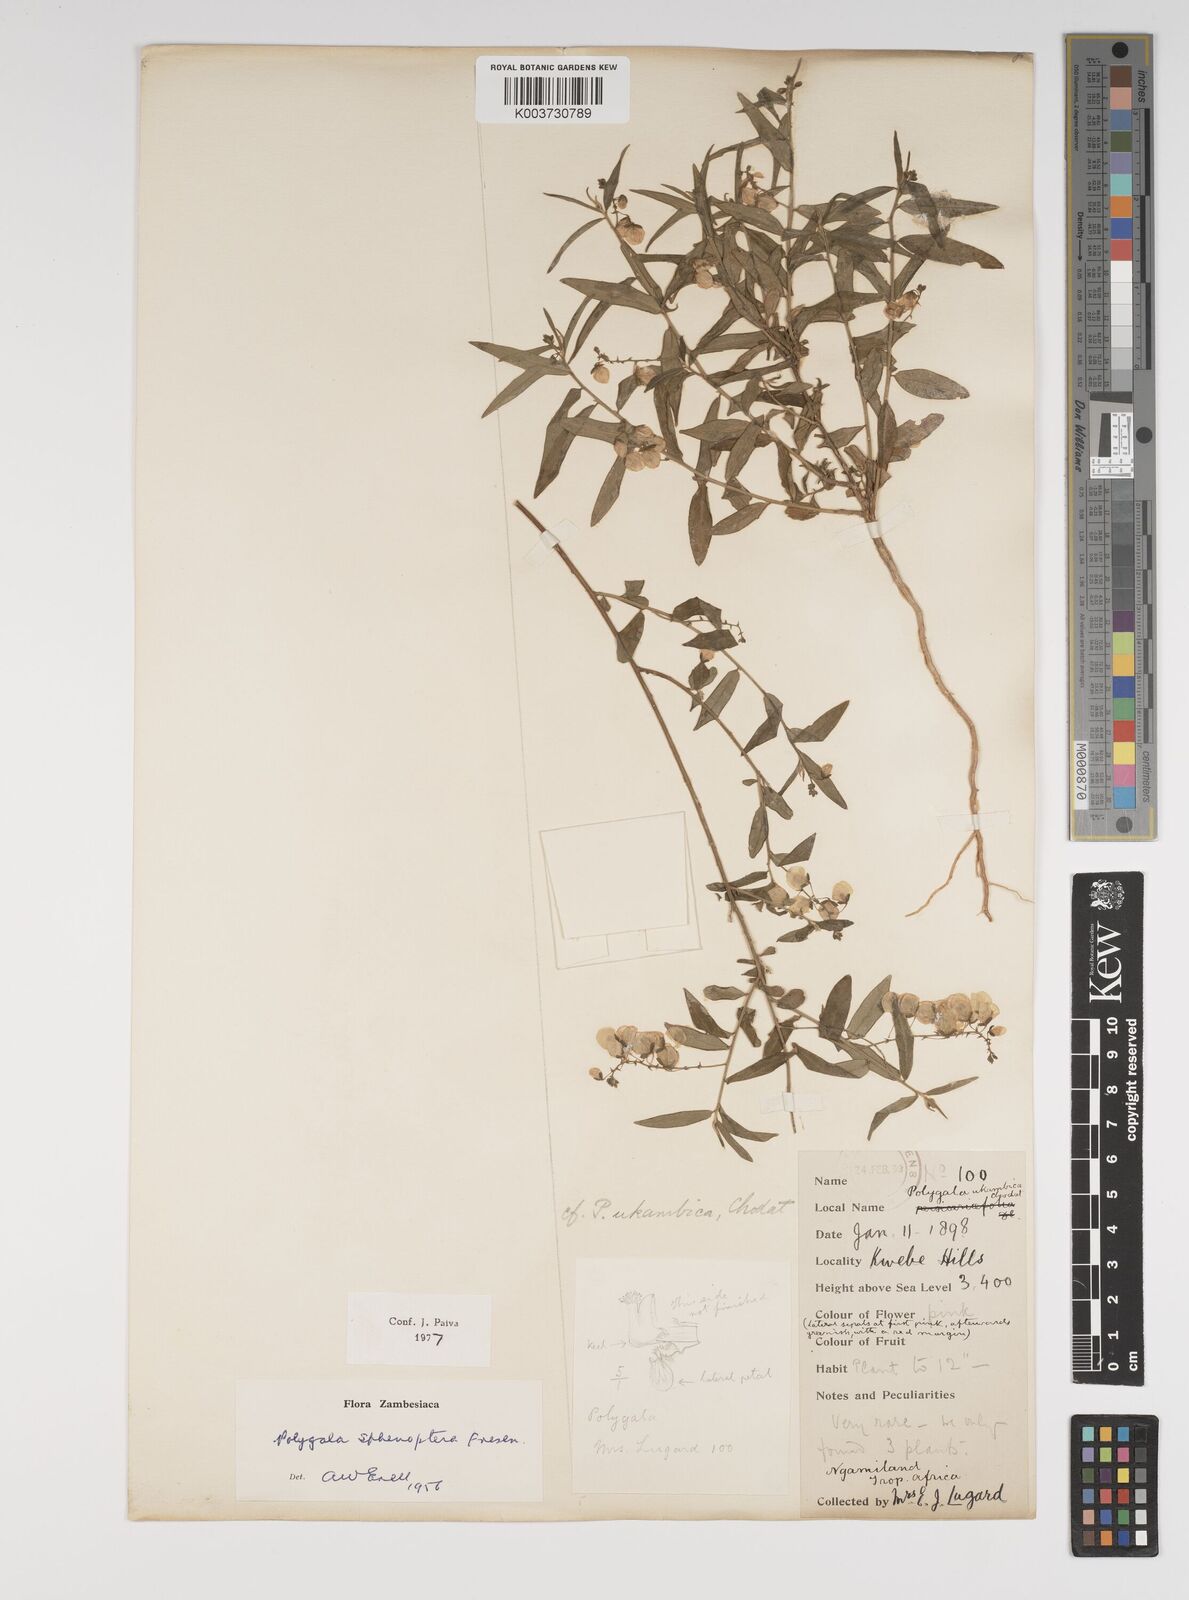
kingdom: Plantae
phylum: Tracheophyta
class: Magnoliopsida
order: Fabales
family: Polygalaceae
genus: Polygala
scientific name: Polygala sphenoptera
